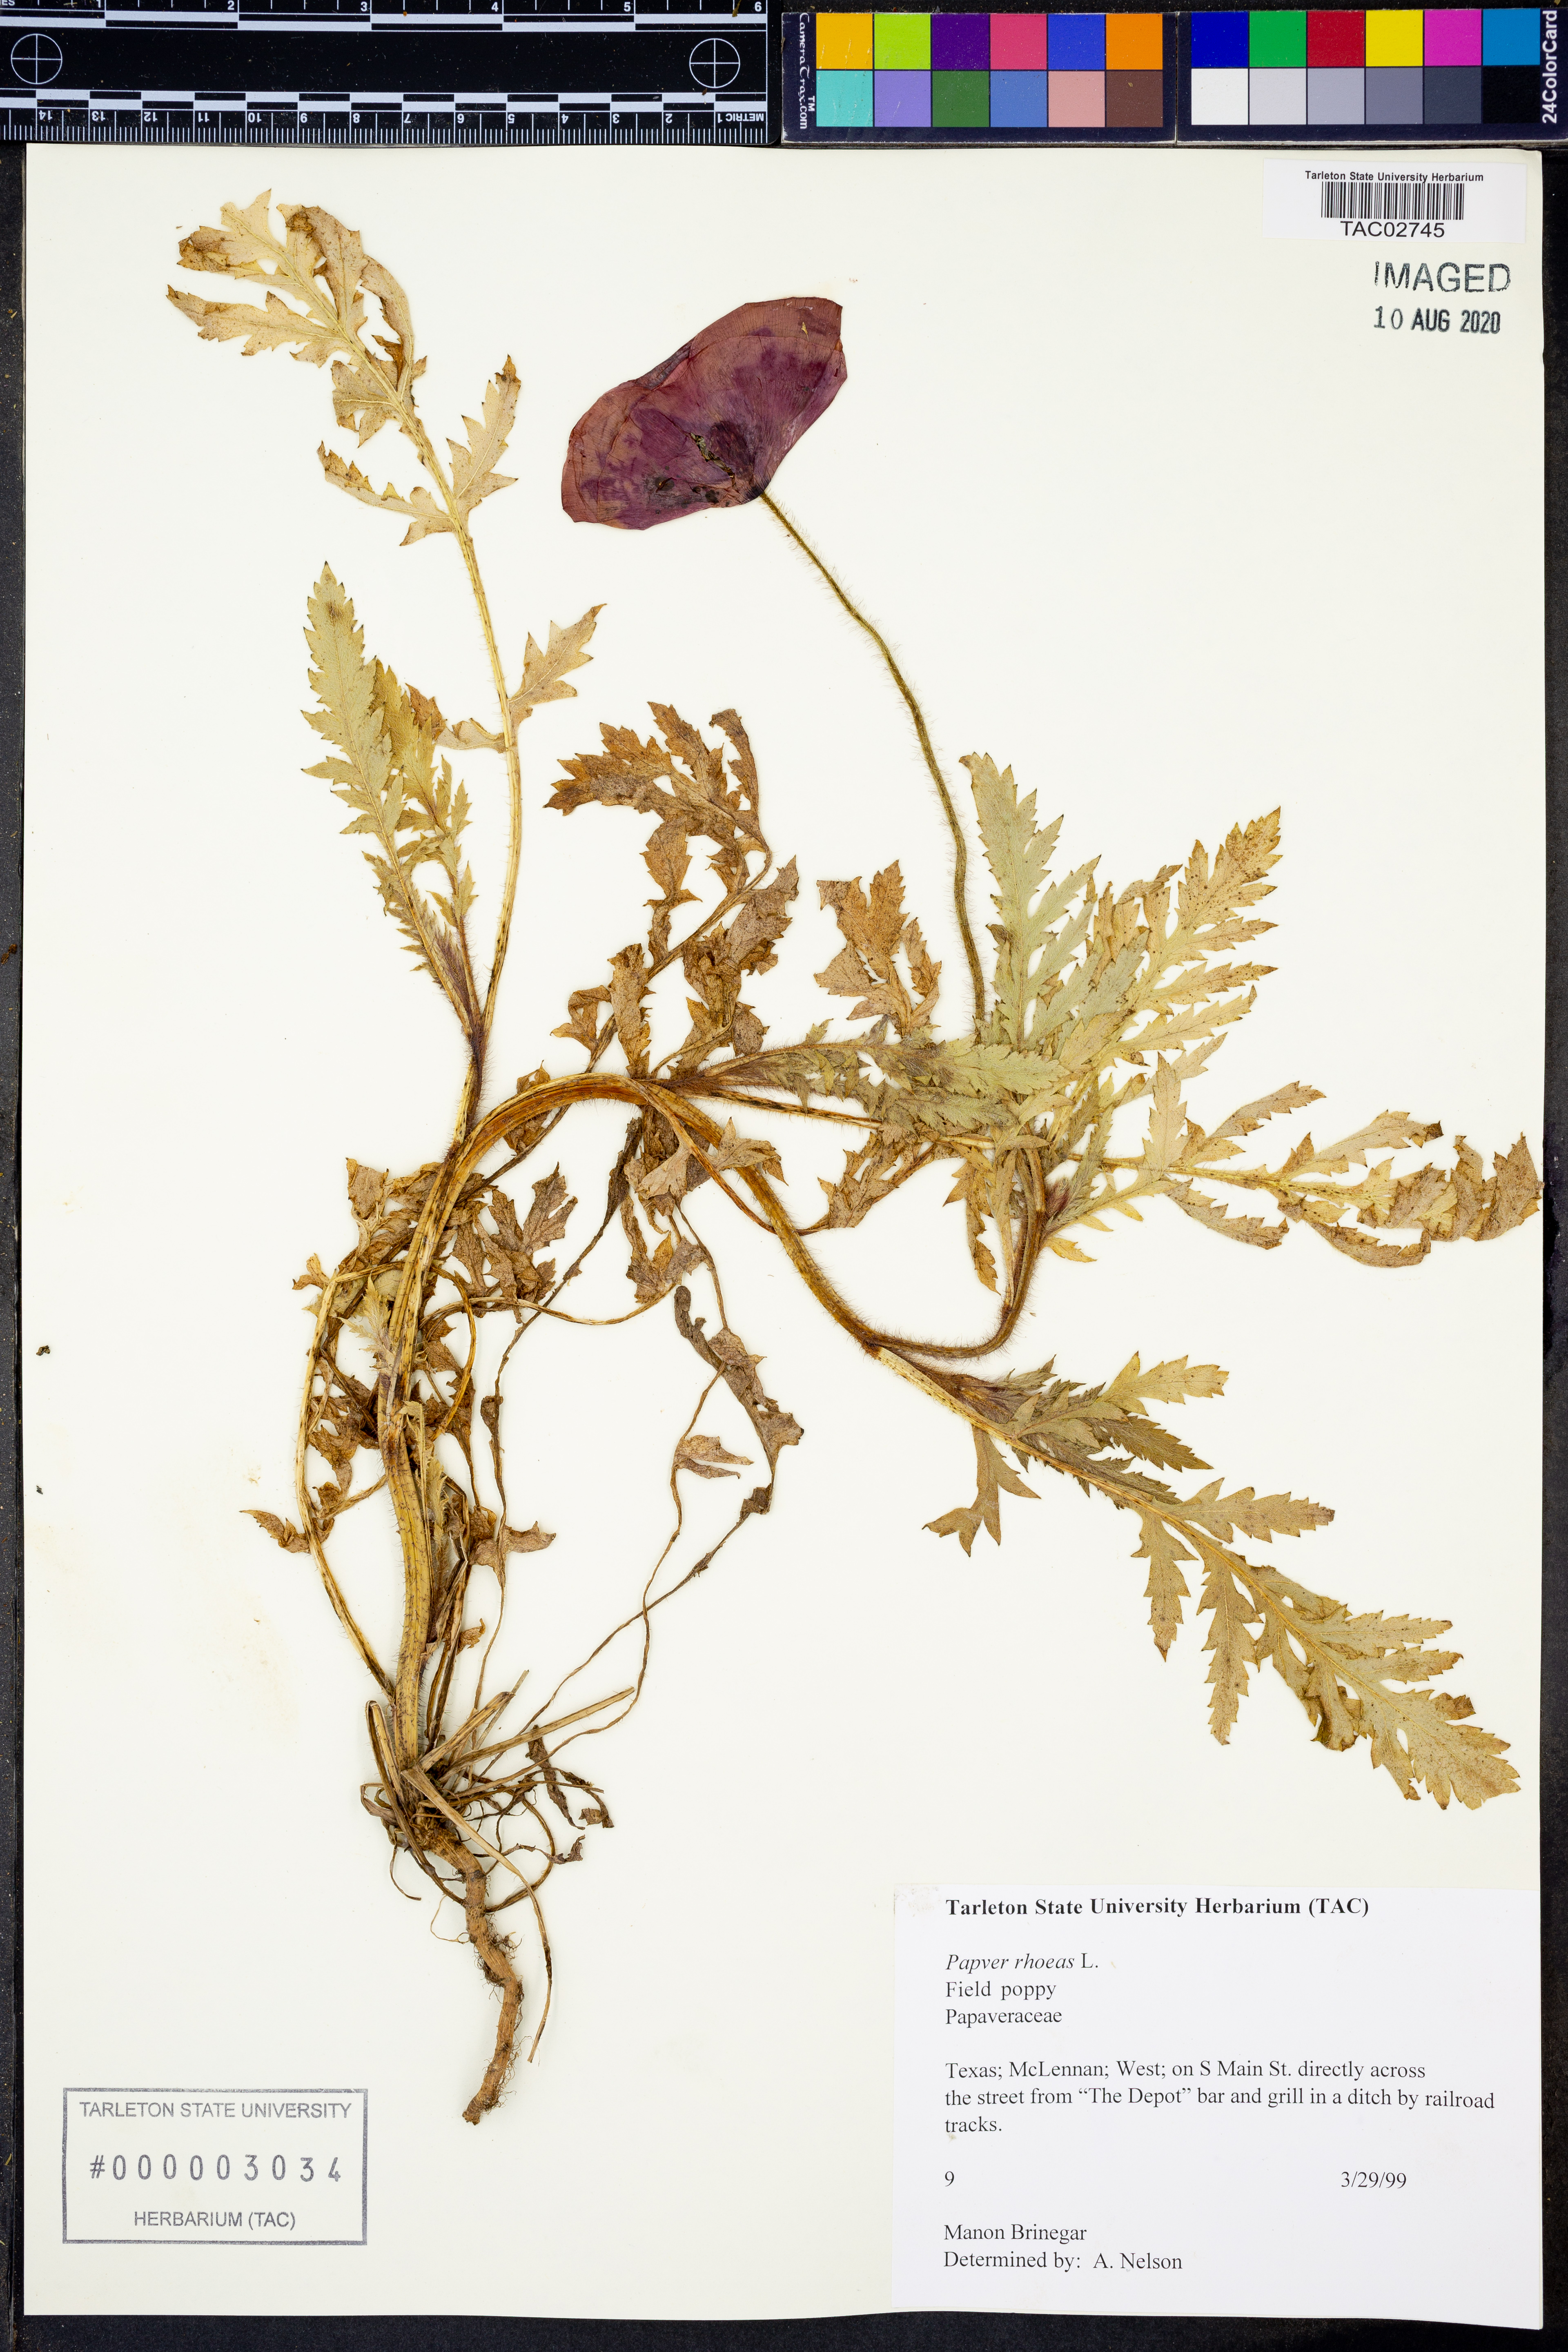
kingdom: Plantae
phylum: Tracheophyta
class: Magnoliopsida
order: Ranunculales
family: Papaveraceae
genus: Papaver
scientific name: Papaver rhoeas
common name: Corn poppy
